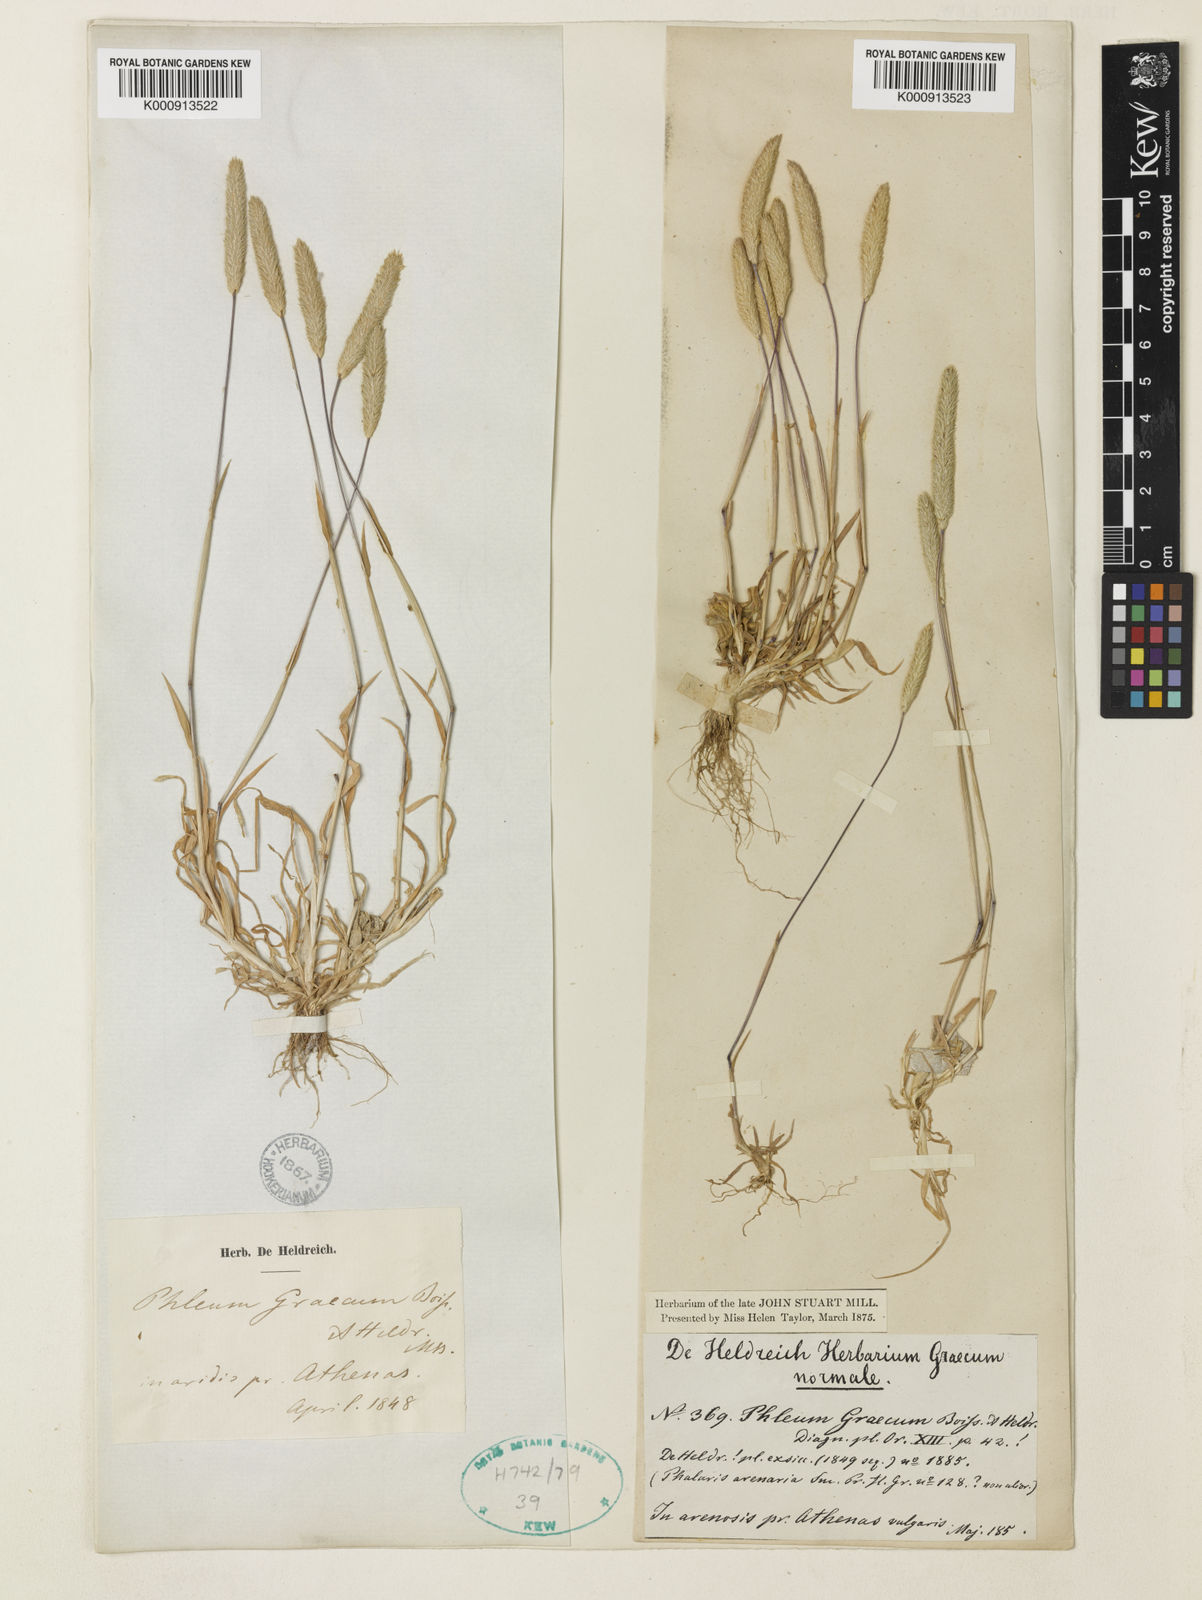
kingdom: Plantae
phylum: Tracheophyta
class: Liliopsida
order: Poales
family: Poaceae
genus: Phleum
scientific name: Phleum exaratum
